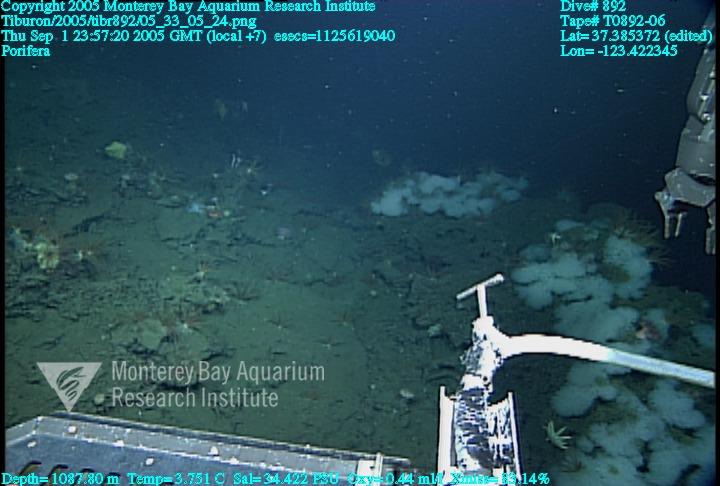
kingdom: Animalia
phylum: Porifera
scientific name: Porifera
